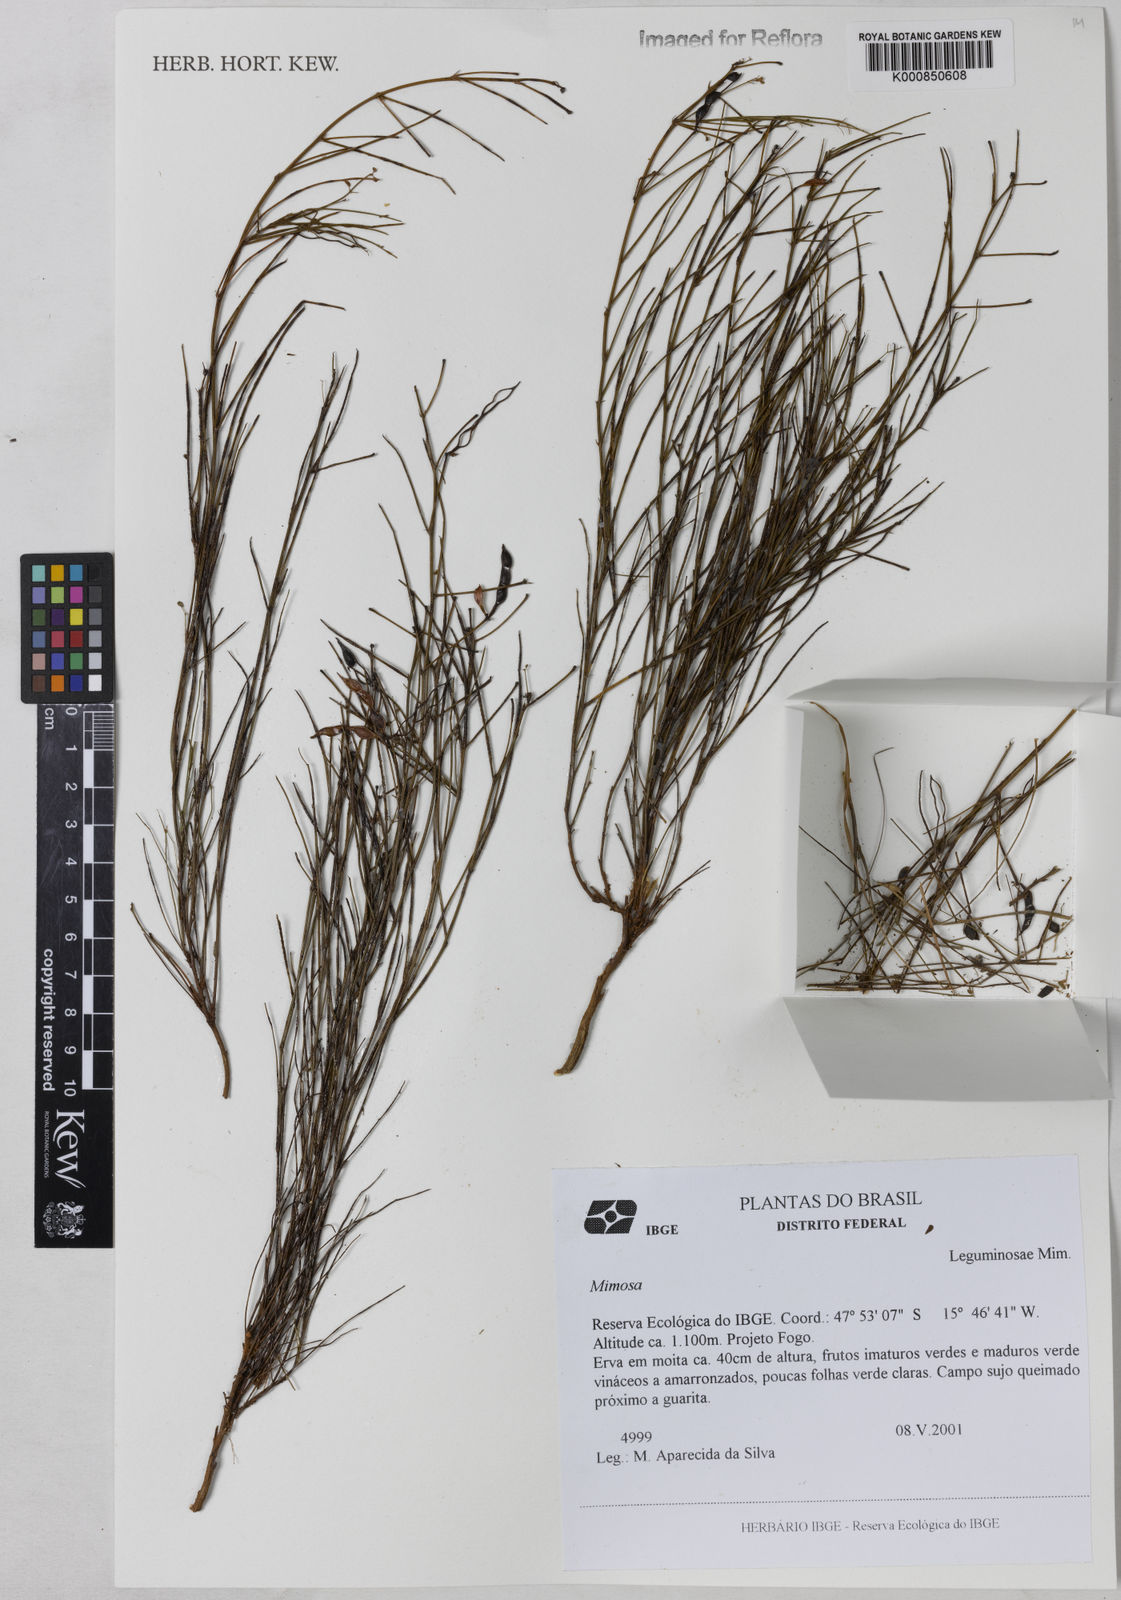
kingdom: Plantae
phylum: Tracheophyta
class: Magnoliopsida
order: Fabales
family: Fabaceae
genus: Mimosa
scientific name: Mimosa gracilis
